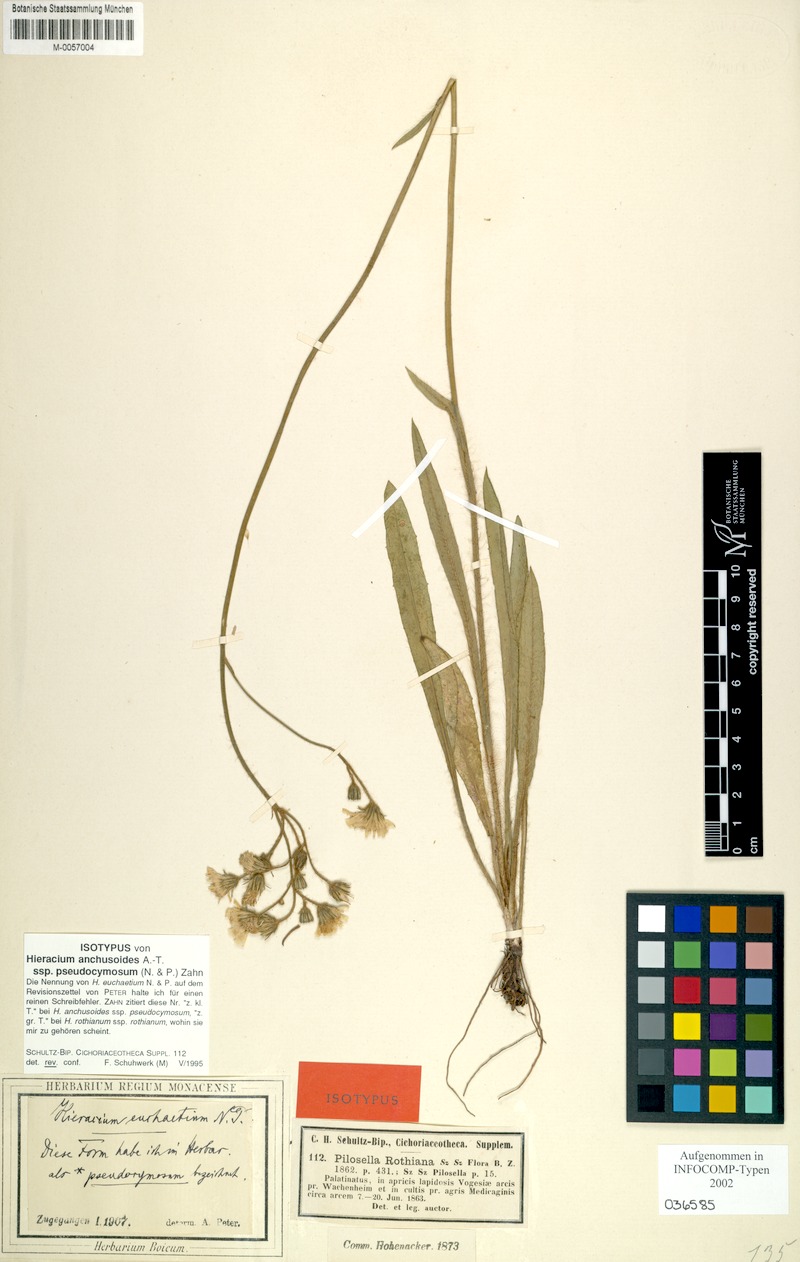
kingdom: Plantae
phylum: Tracheophyta
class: Magnoliopsida
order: Asterales
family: Asteraceae
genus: Pilosella
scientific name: Pilosella anchusoides
